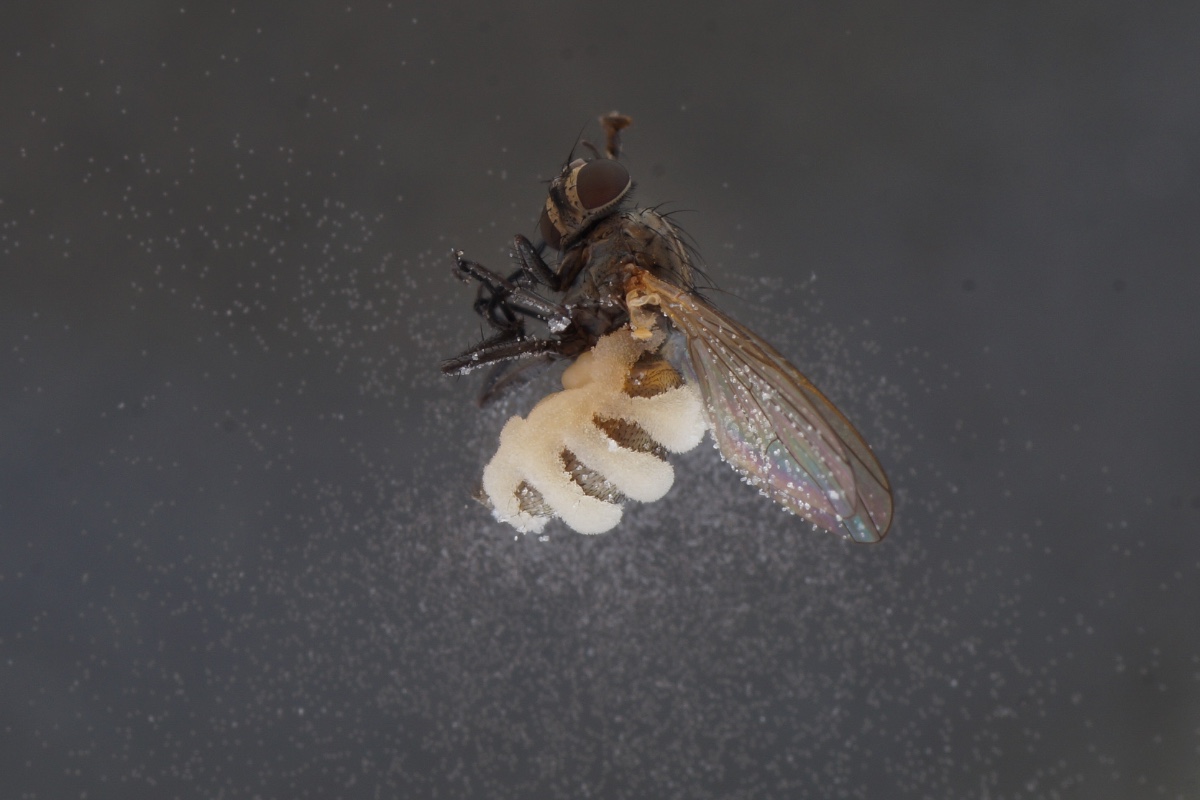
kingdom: Fungi
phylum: Entomophthoromycota
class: Entomophthoromycetes
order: Entomophthorales
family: Entomophthoraceae
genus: Entomophthora
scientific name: Entomophthora muscae
